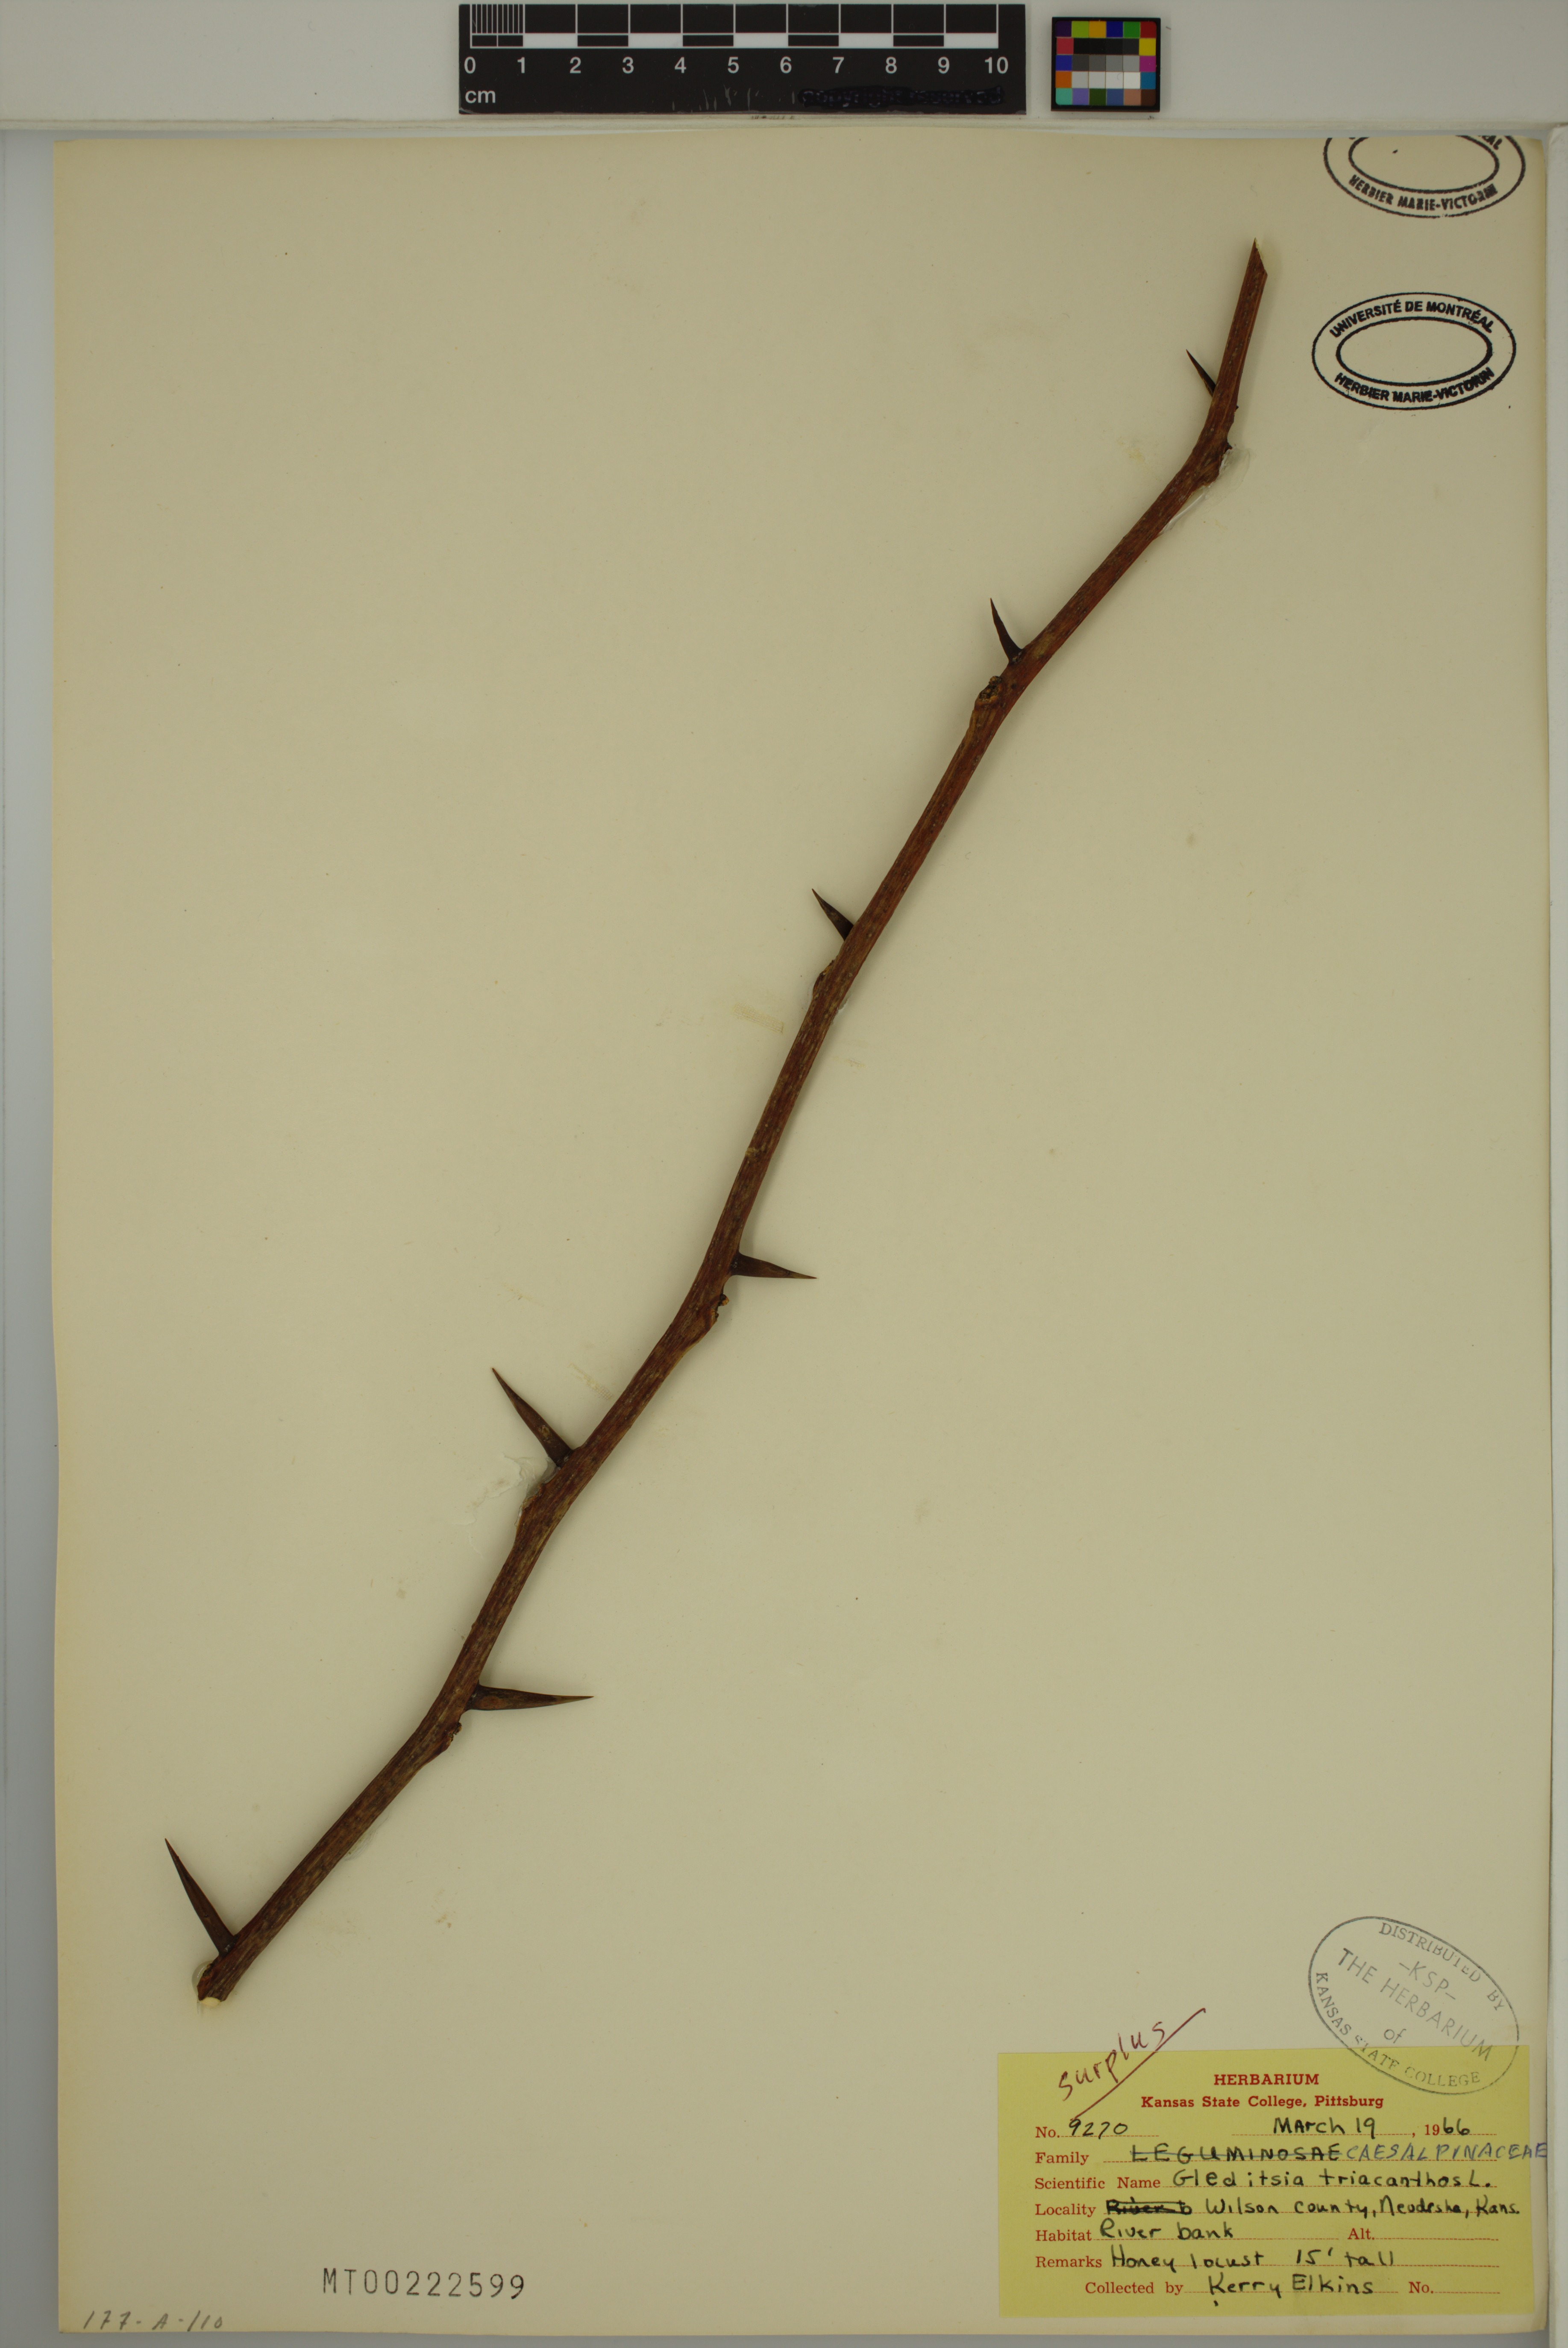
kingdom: Plantae
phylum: Tracheophyta
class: Magnoliopsida
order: Fabales
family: Fabaceae
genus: Gleditsia
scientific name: Gleditsia triacanthos
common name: Common honeylocust
